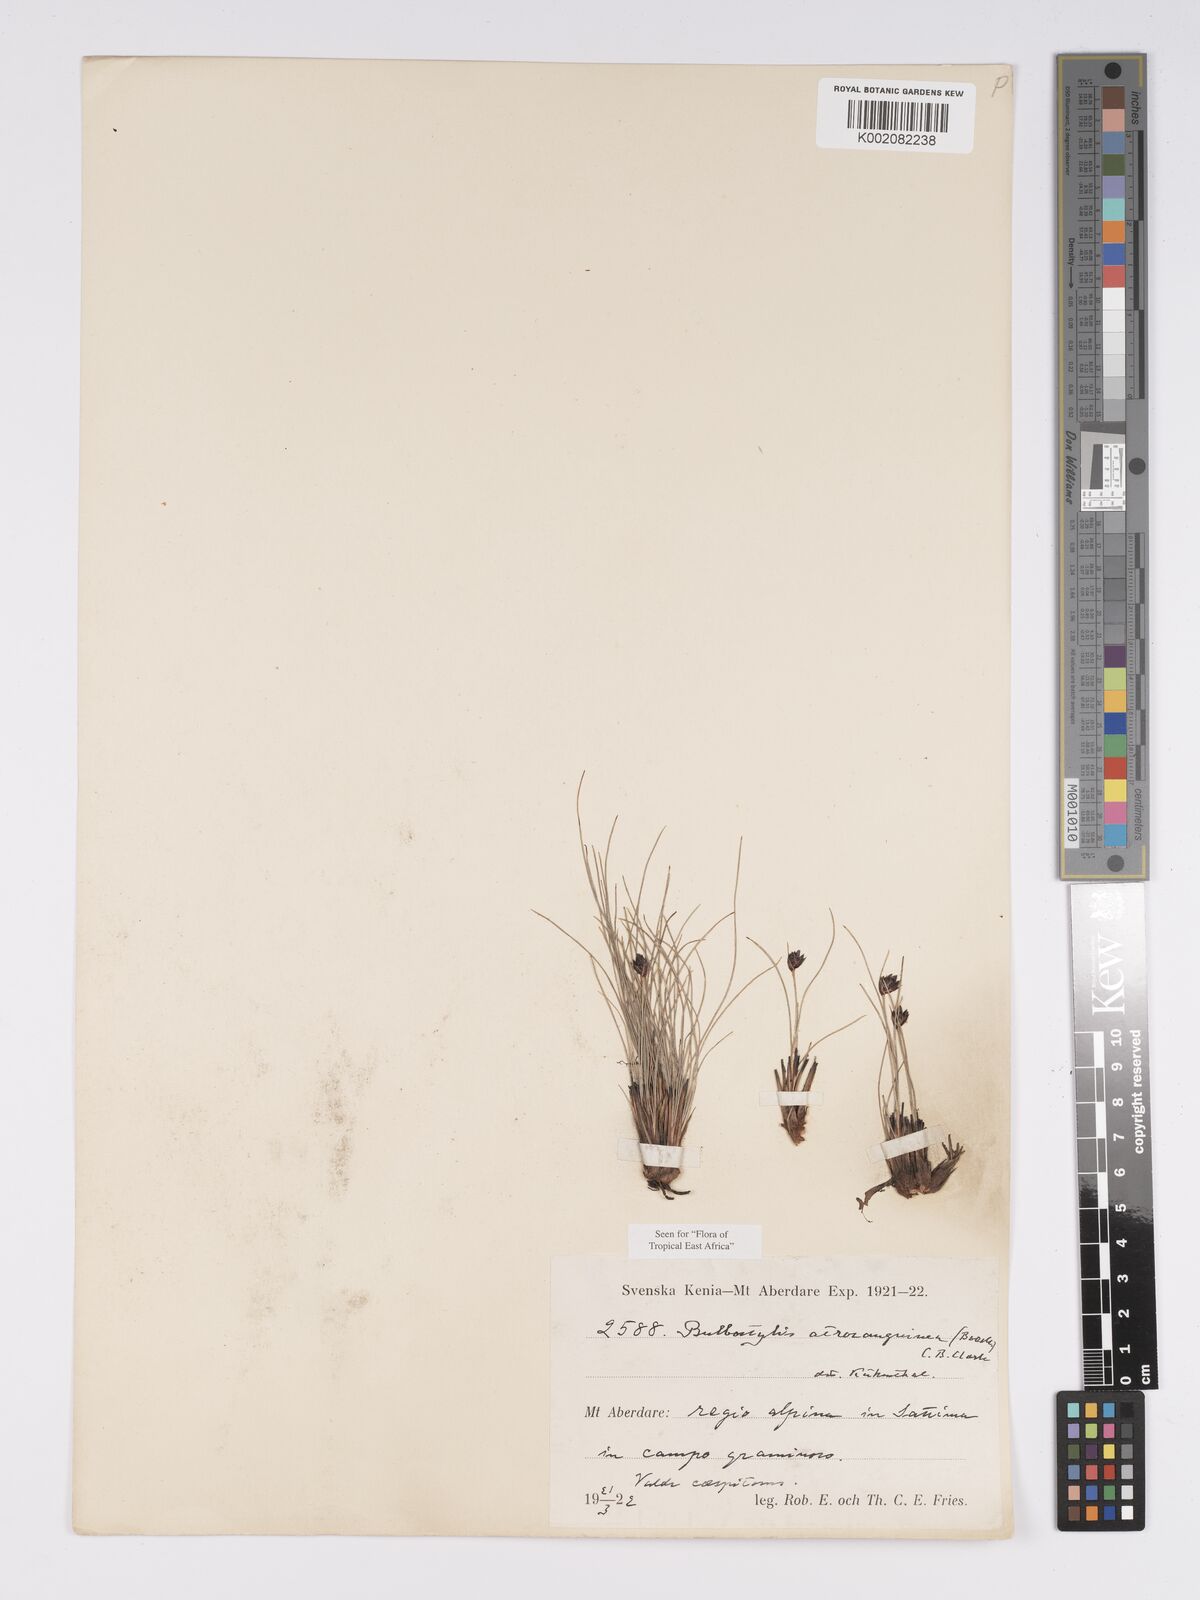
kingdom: Plantae
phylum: Tracheophyta
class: Liliopsida
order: Poales
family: Cyperaceae
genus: Bulbostylis
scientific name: Bulbostylis atrosanguinea
